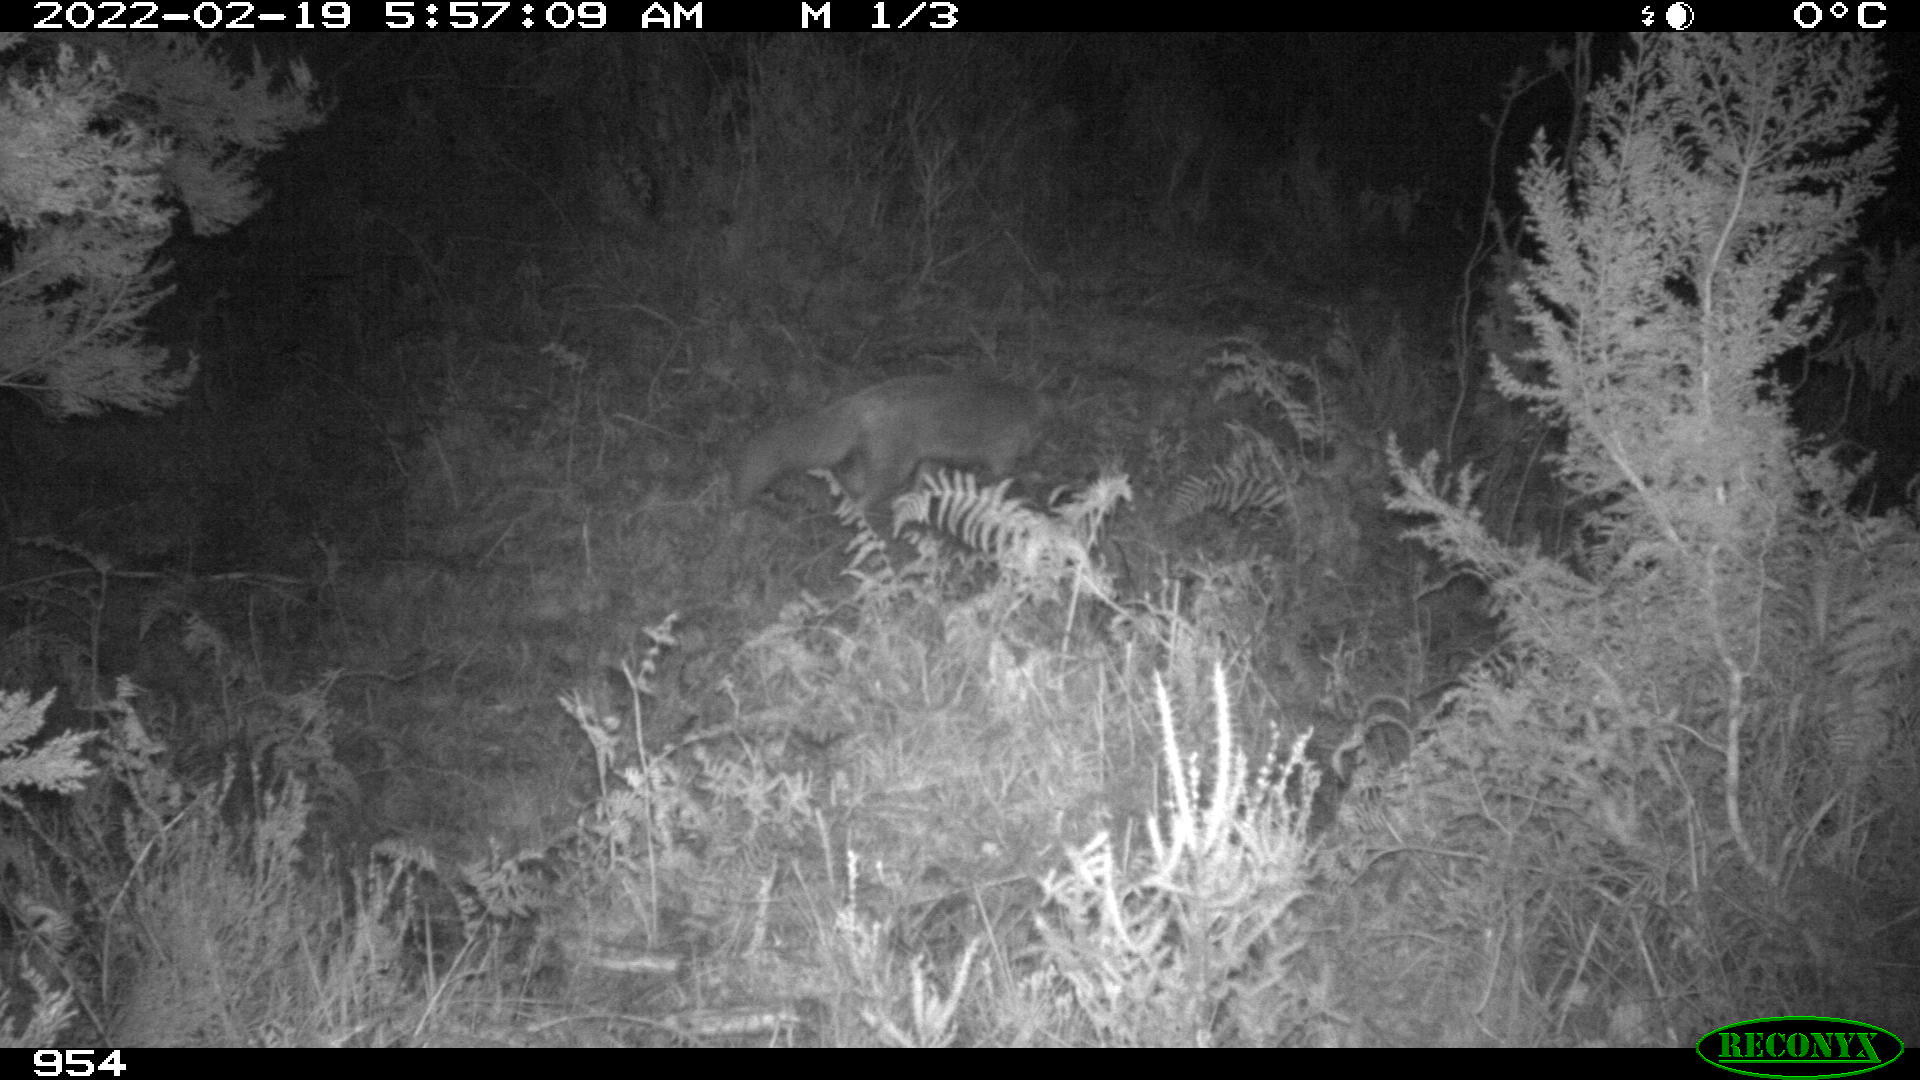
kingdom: Animalia
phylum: Chordata
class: Mammalia
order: Carnivora
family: Canidae
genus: Vulpes
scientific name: Vulpes vulpes
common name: Red fox
